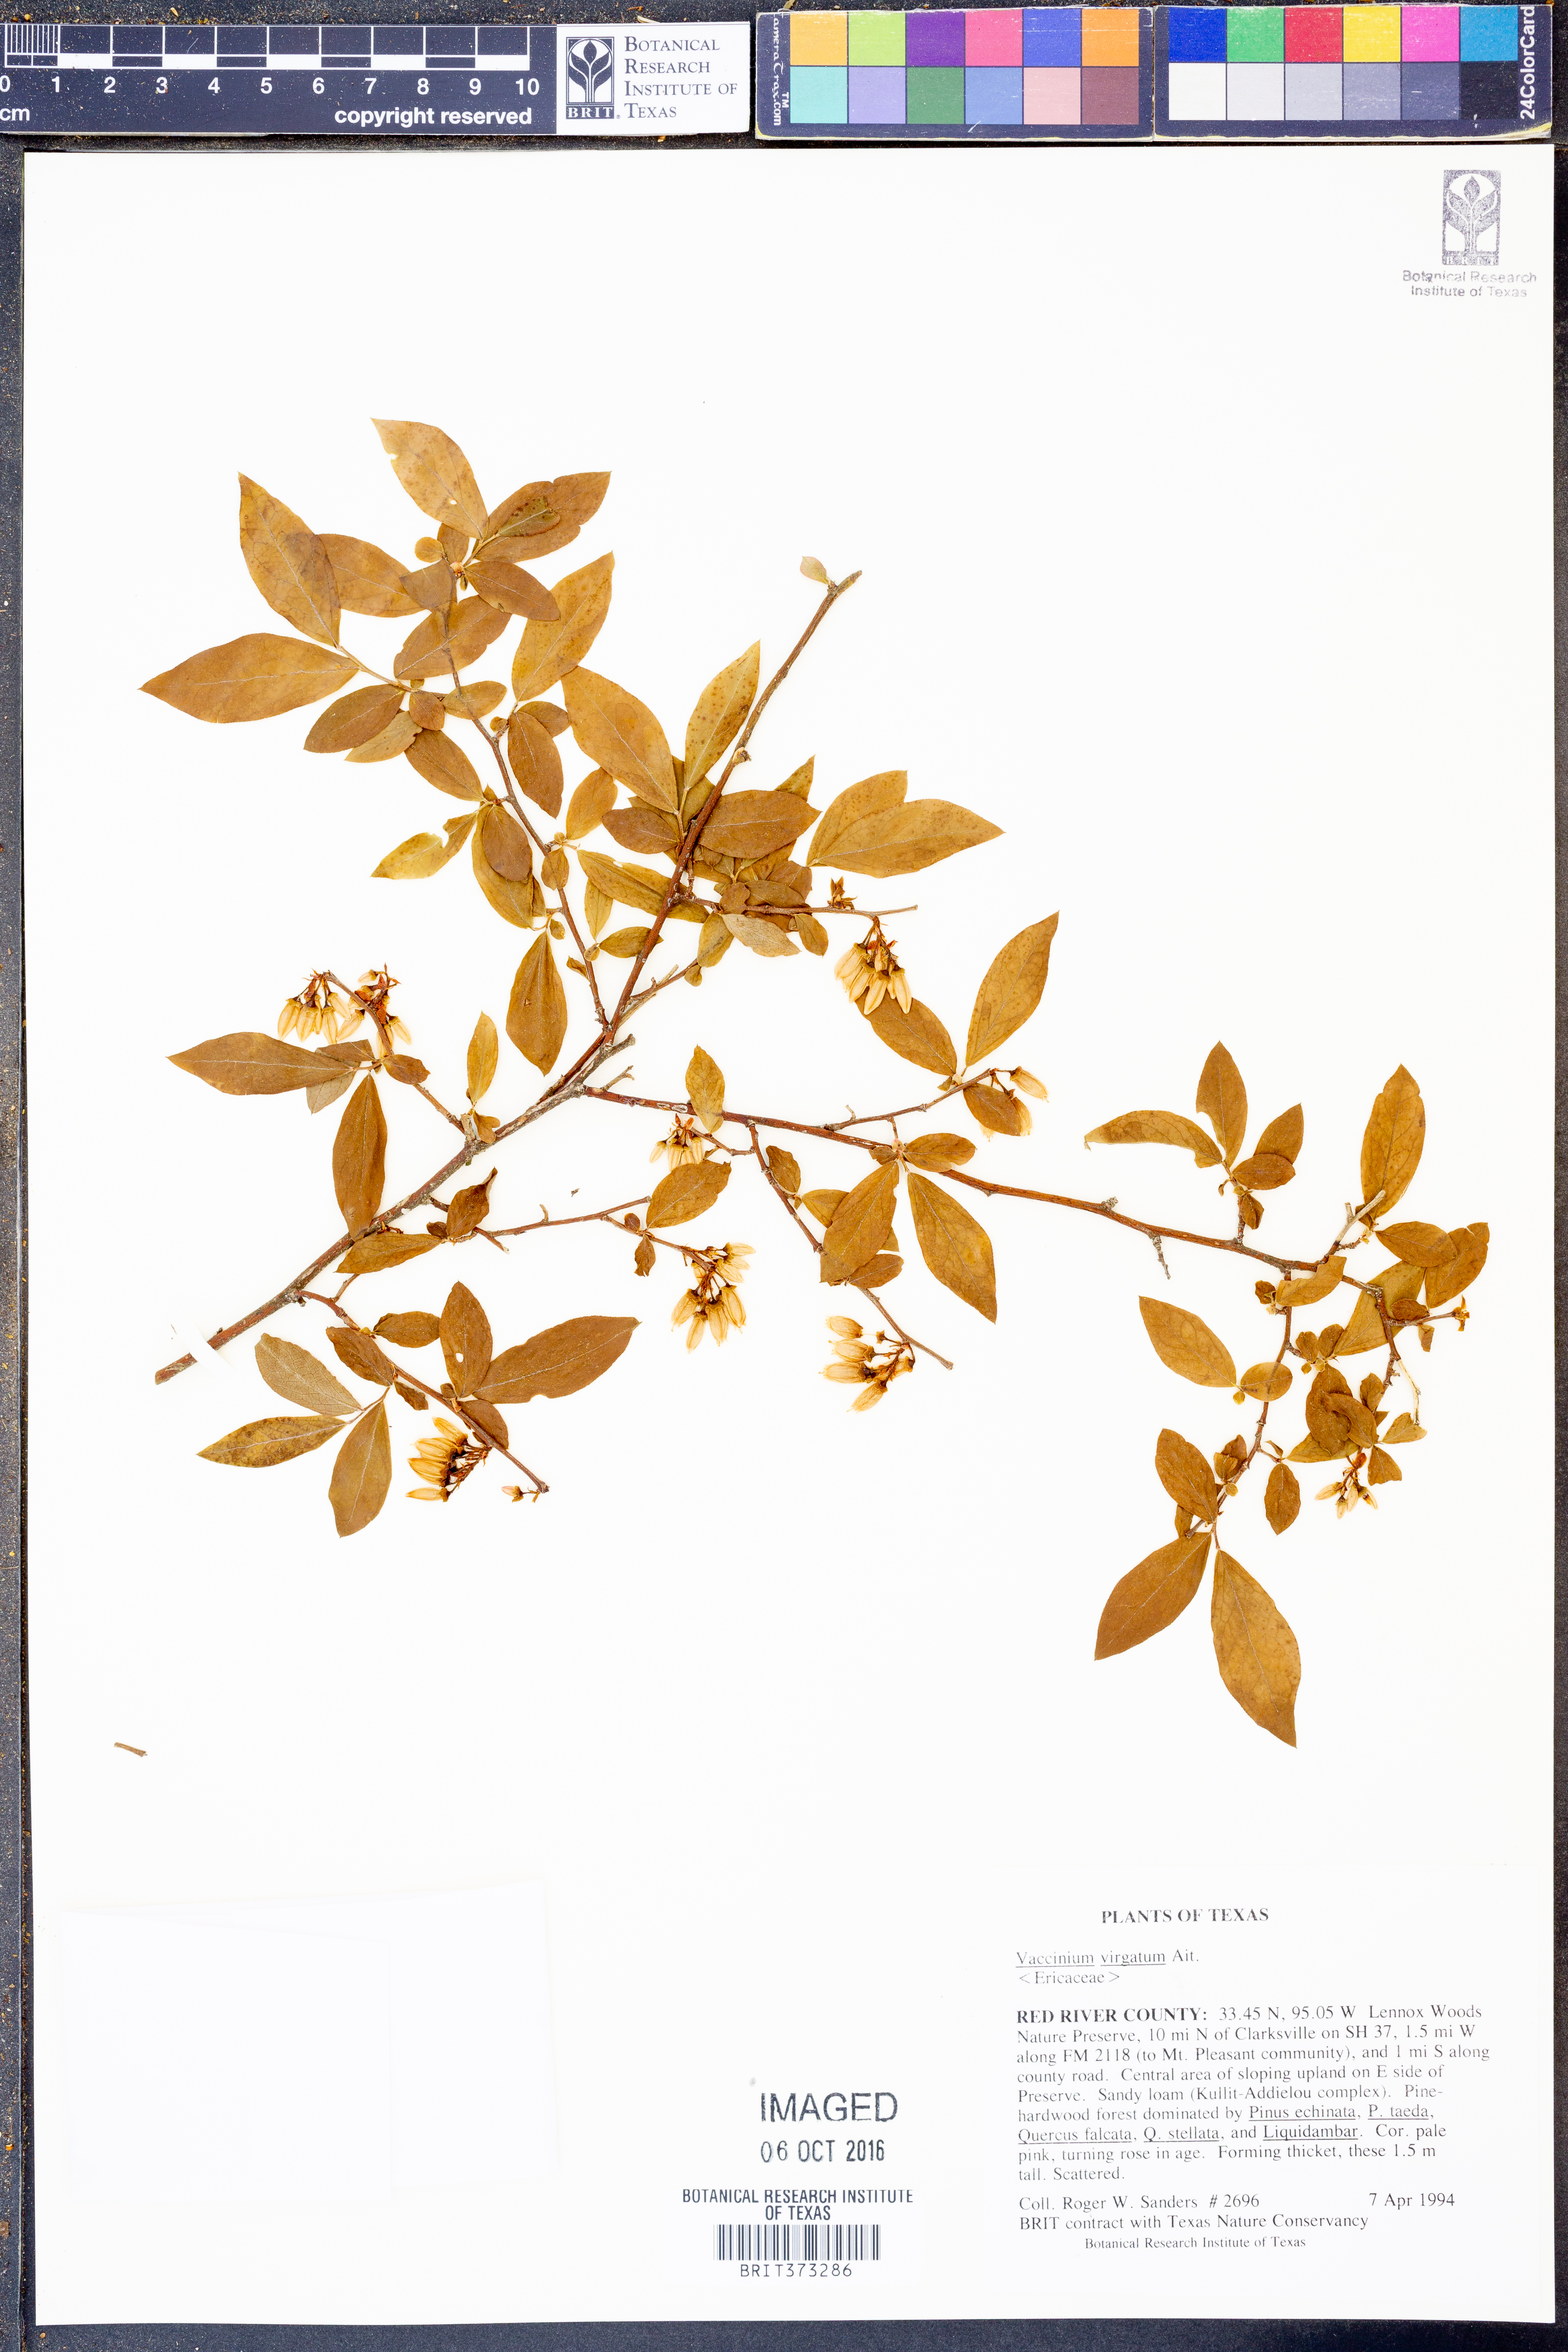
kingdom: Plantae
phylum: Tracheophyta
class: Magnoliopsida
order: Ericales
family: Ericaceae
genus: Vaccinium
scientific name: Vaccinium corymbosum
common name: Blueberry
